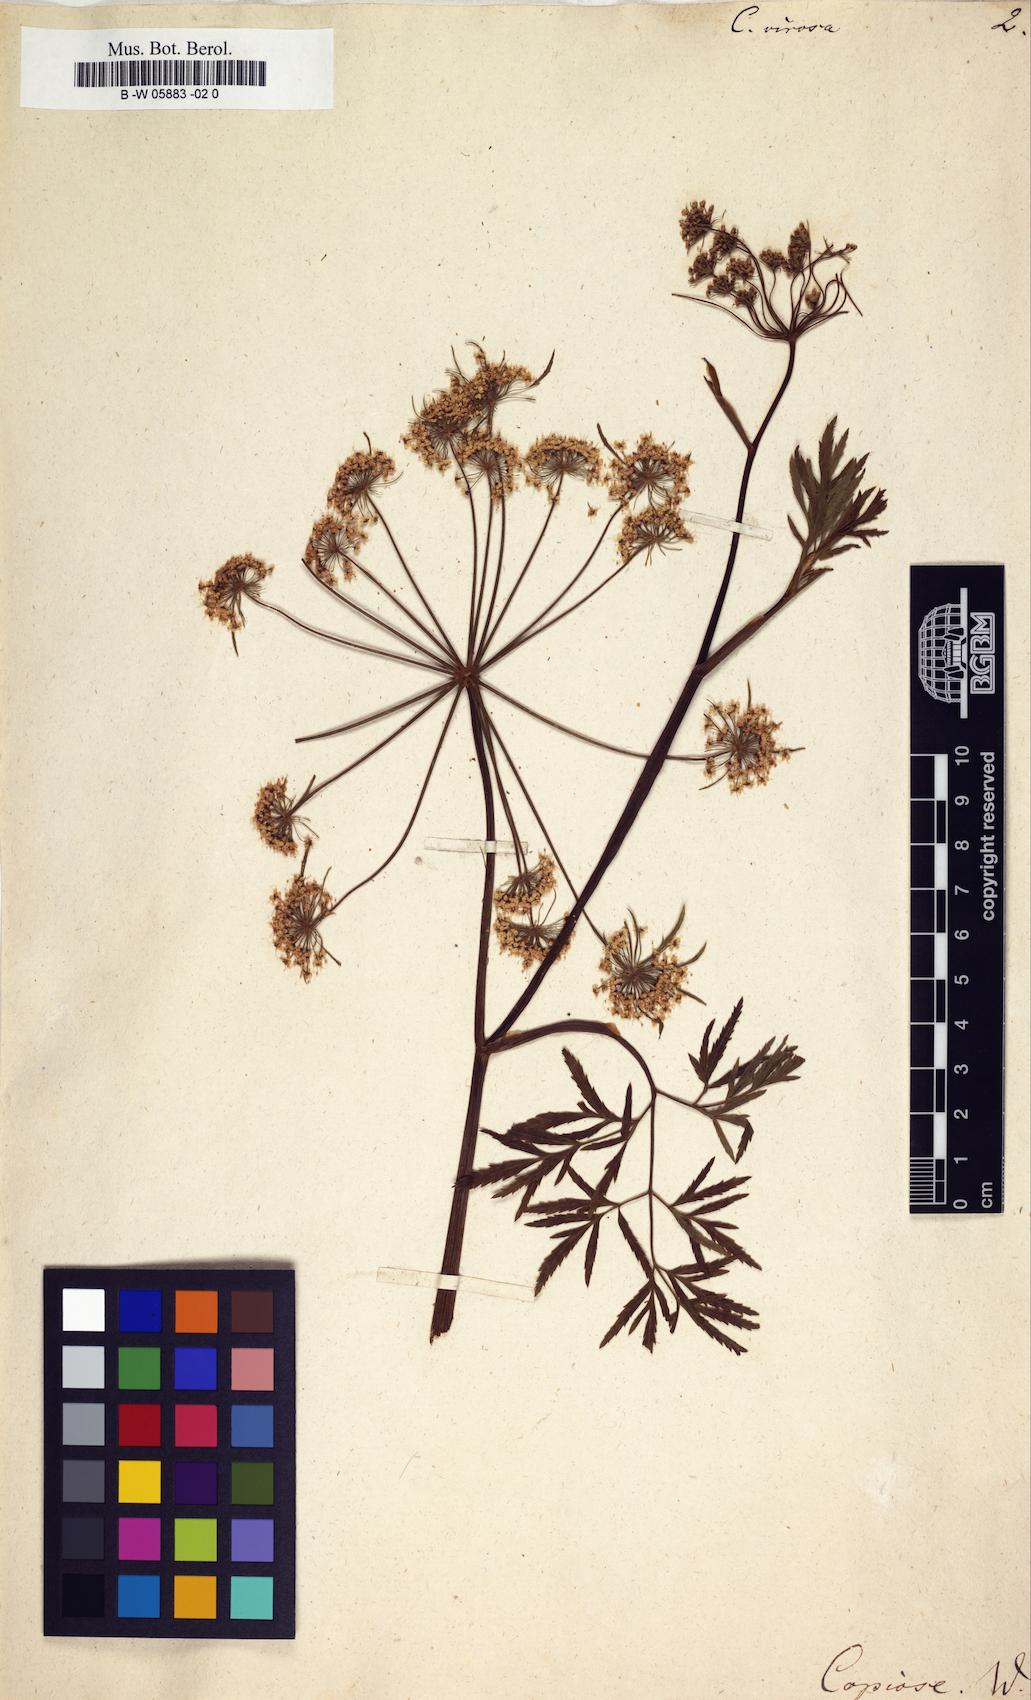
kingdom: Plantae
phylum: Tracheophyta
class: Magnoliopsida
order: Apiales
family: Apiaceae
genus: Cicuta
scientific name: Cicuta virosa
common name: Cowbane
